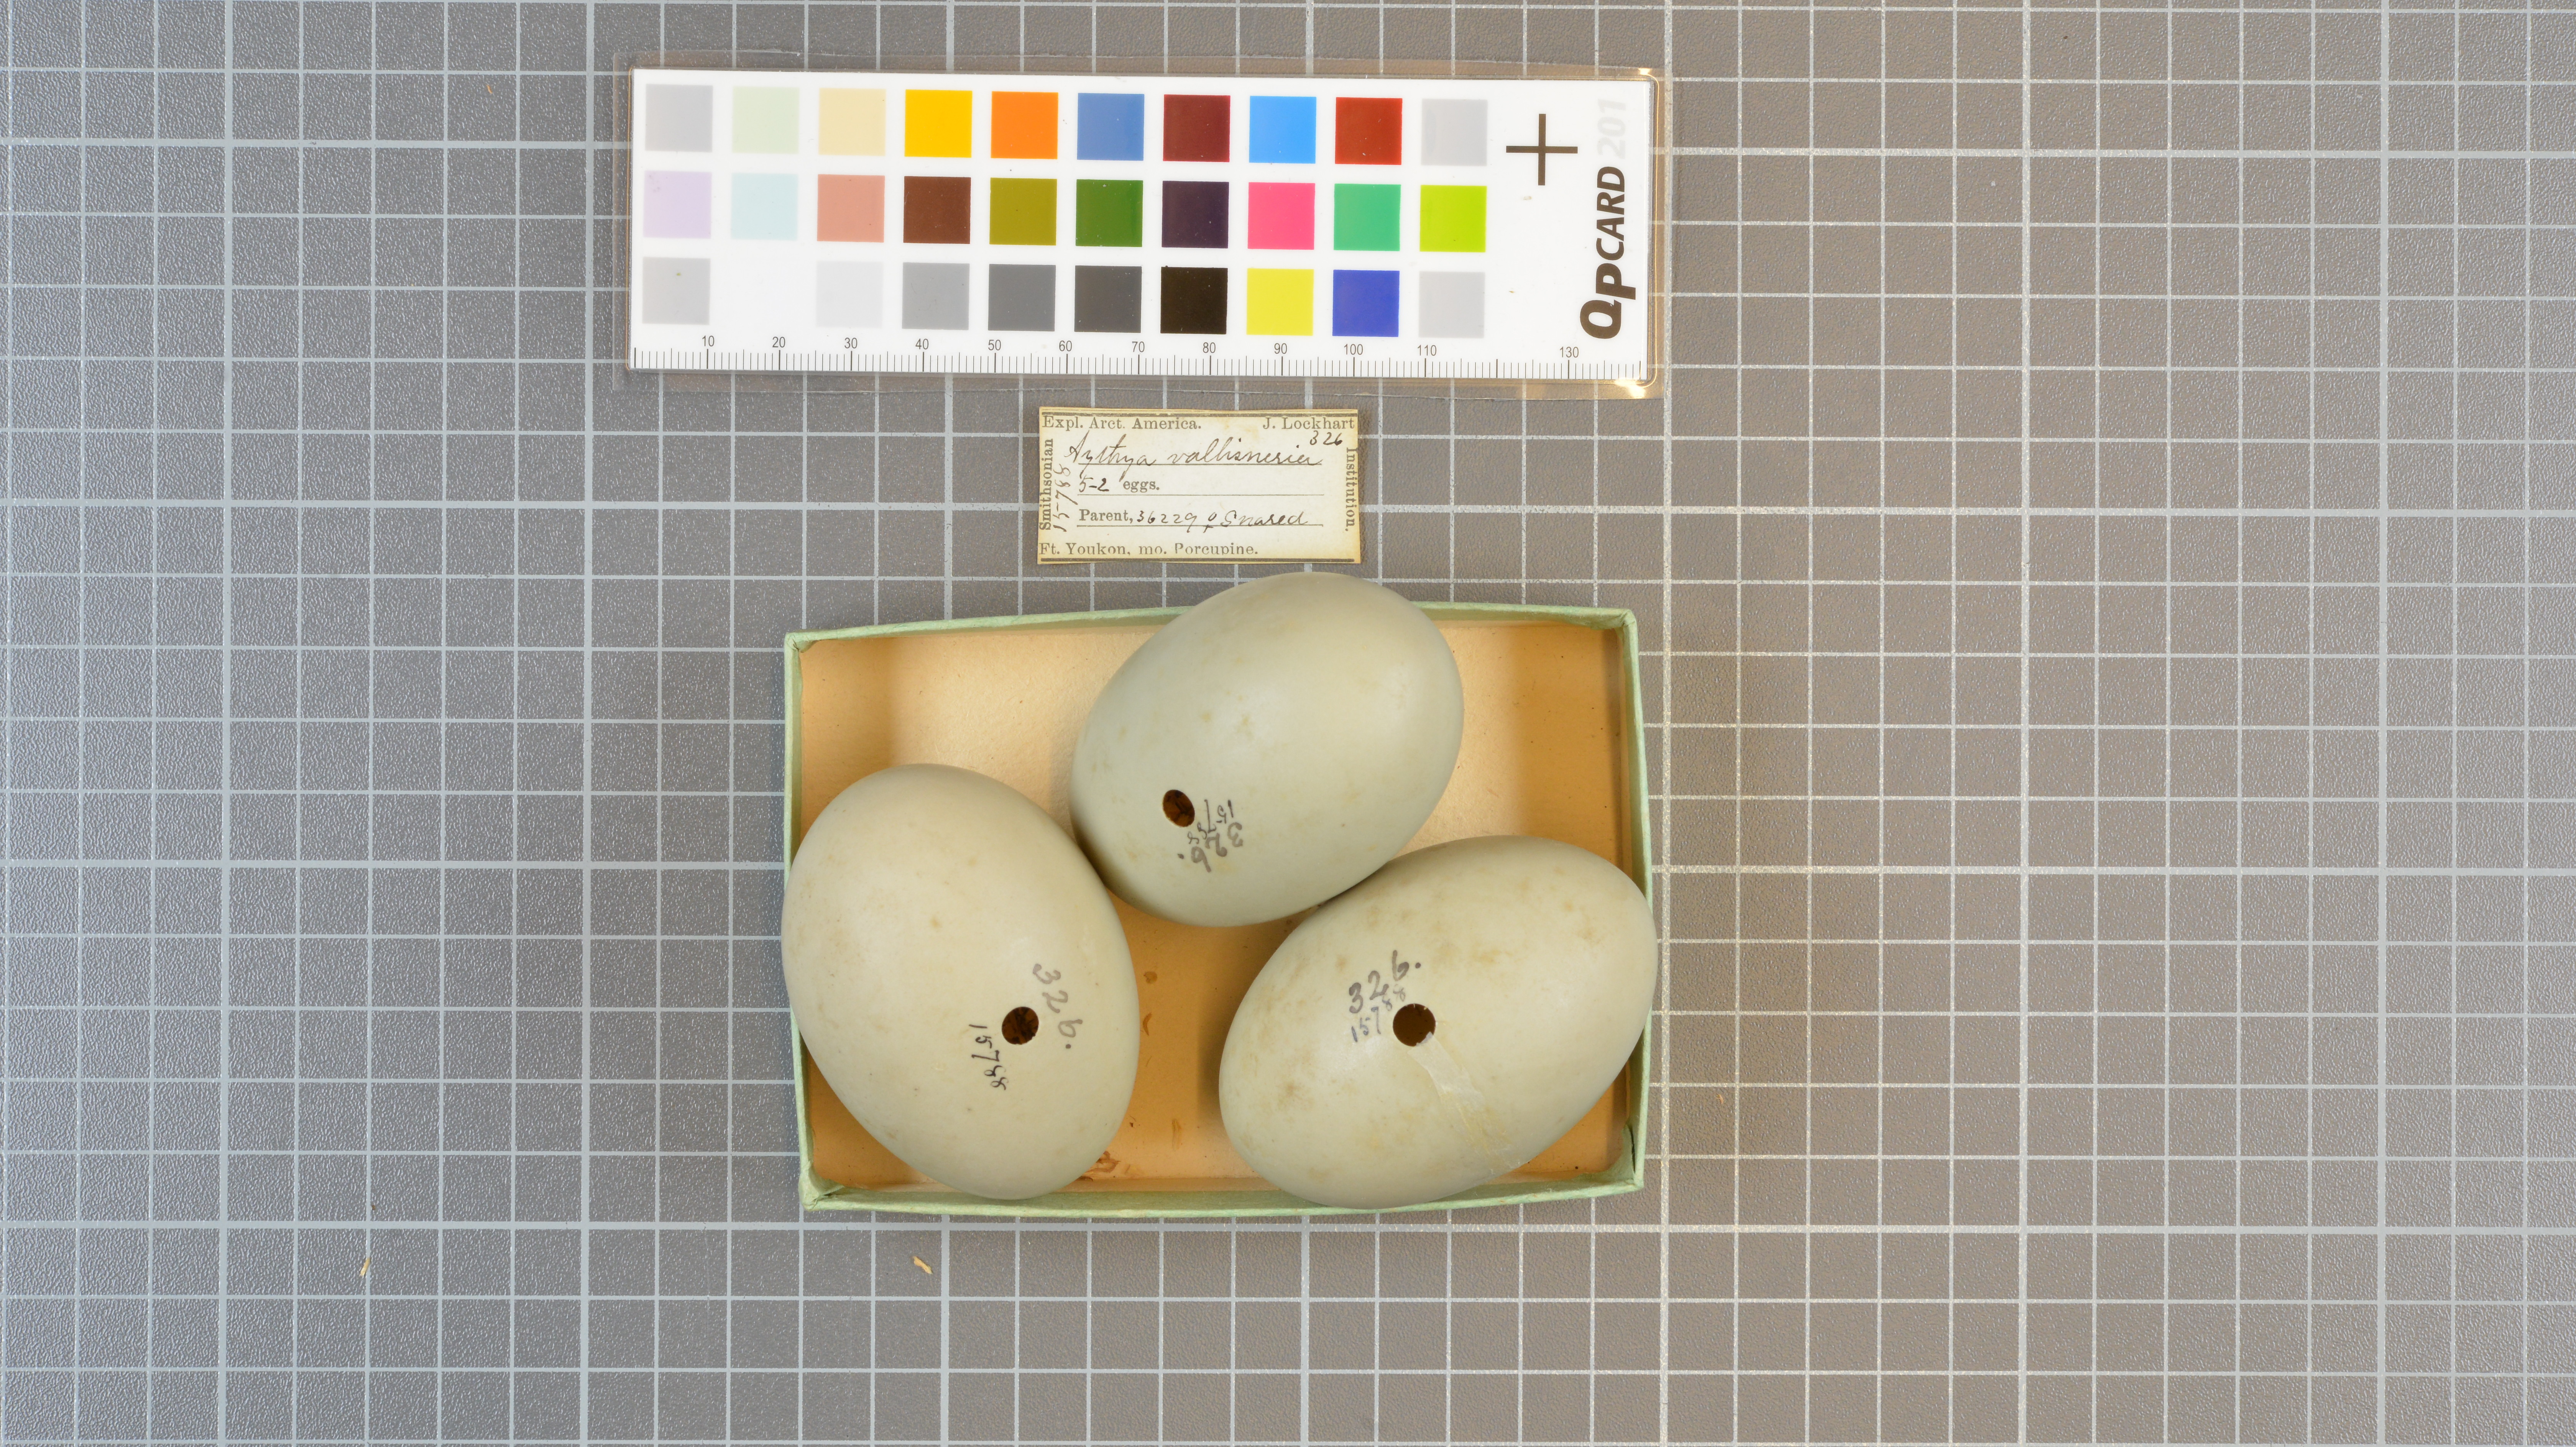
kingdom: Animalia
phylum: Chordata
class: Aves
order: Anseriformes
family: Anatidae
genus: Aythya
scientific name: Aythya valisineria
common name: Canvasback
